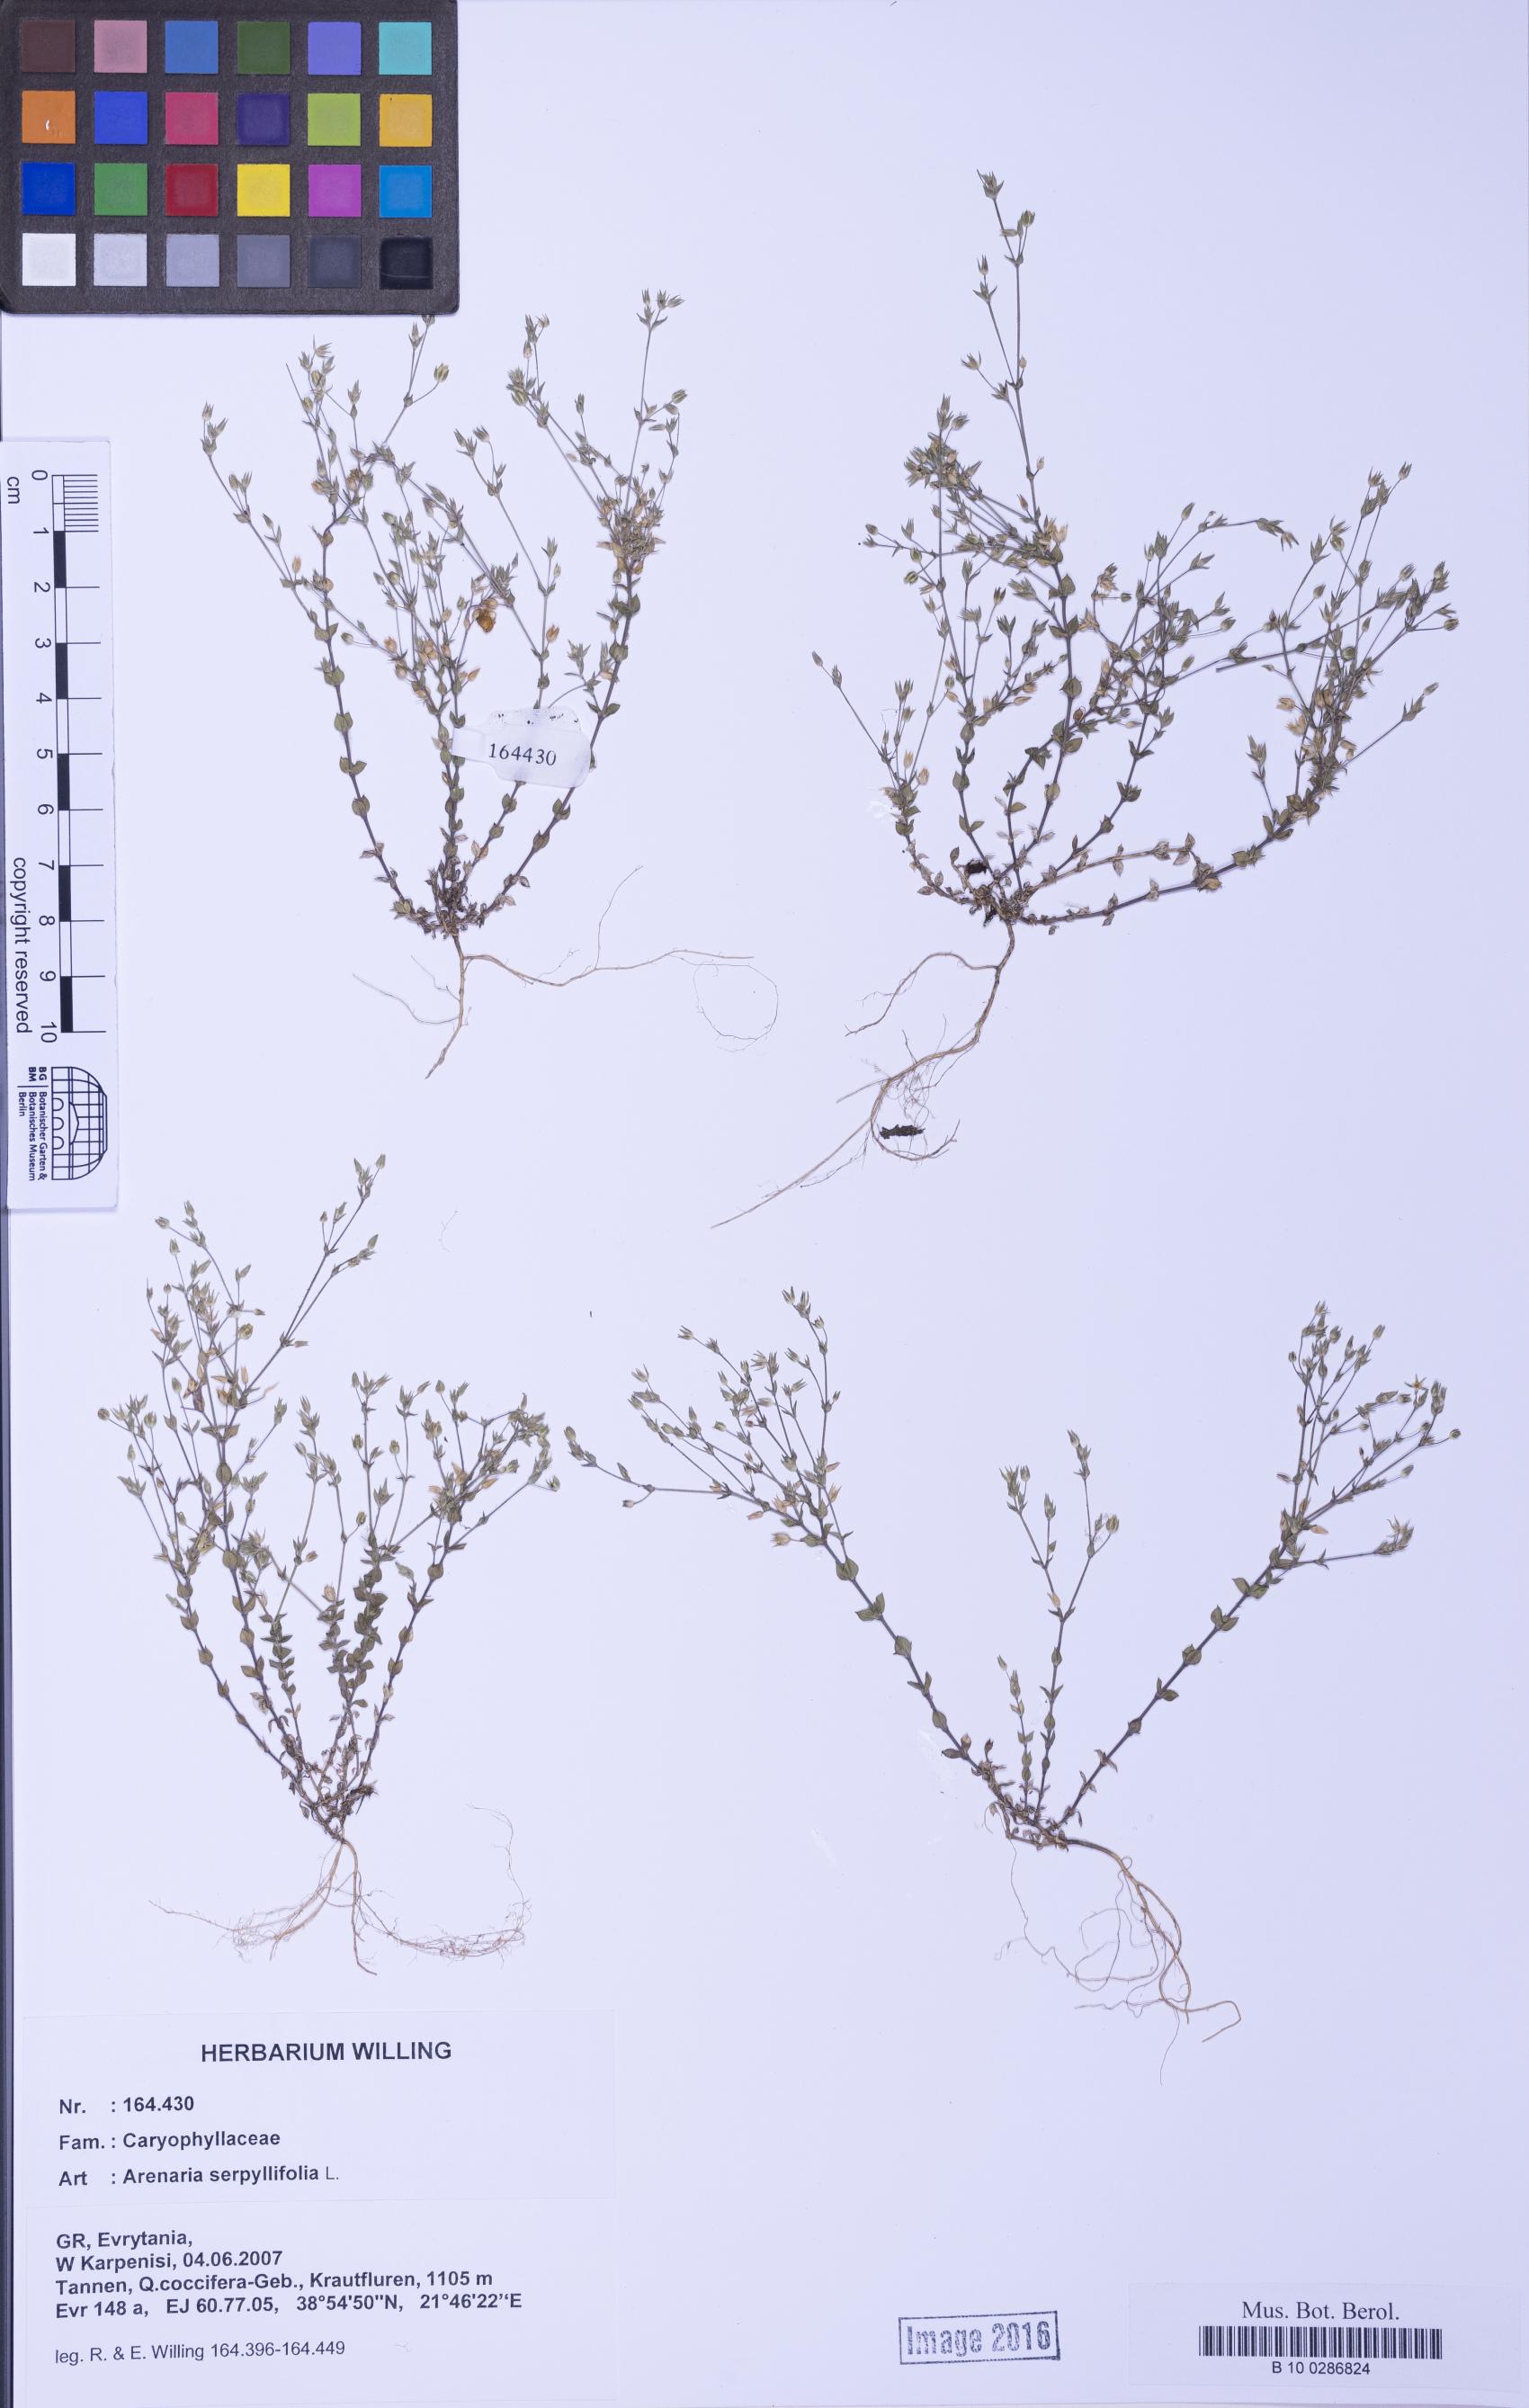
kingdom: Plantae
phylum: Tracheophyta
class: Magnoliopsida
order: Caryophyllales
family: Caryophyllaceae
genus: Arenaria
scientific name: Arenaria serpyllifolia
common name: Thyme-leaved sandwort
